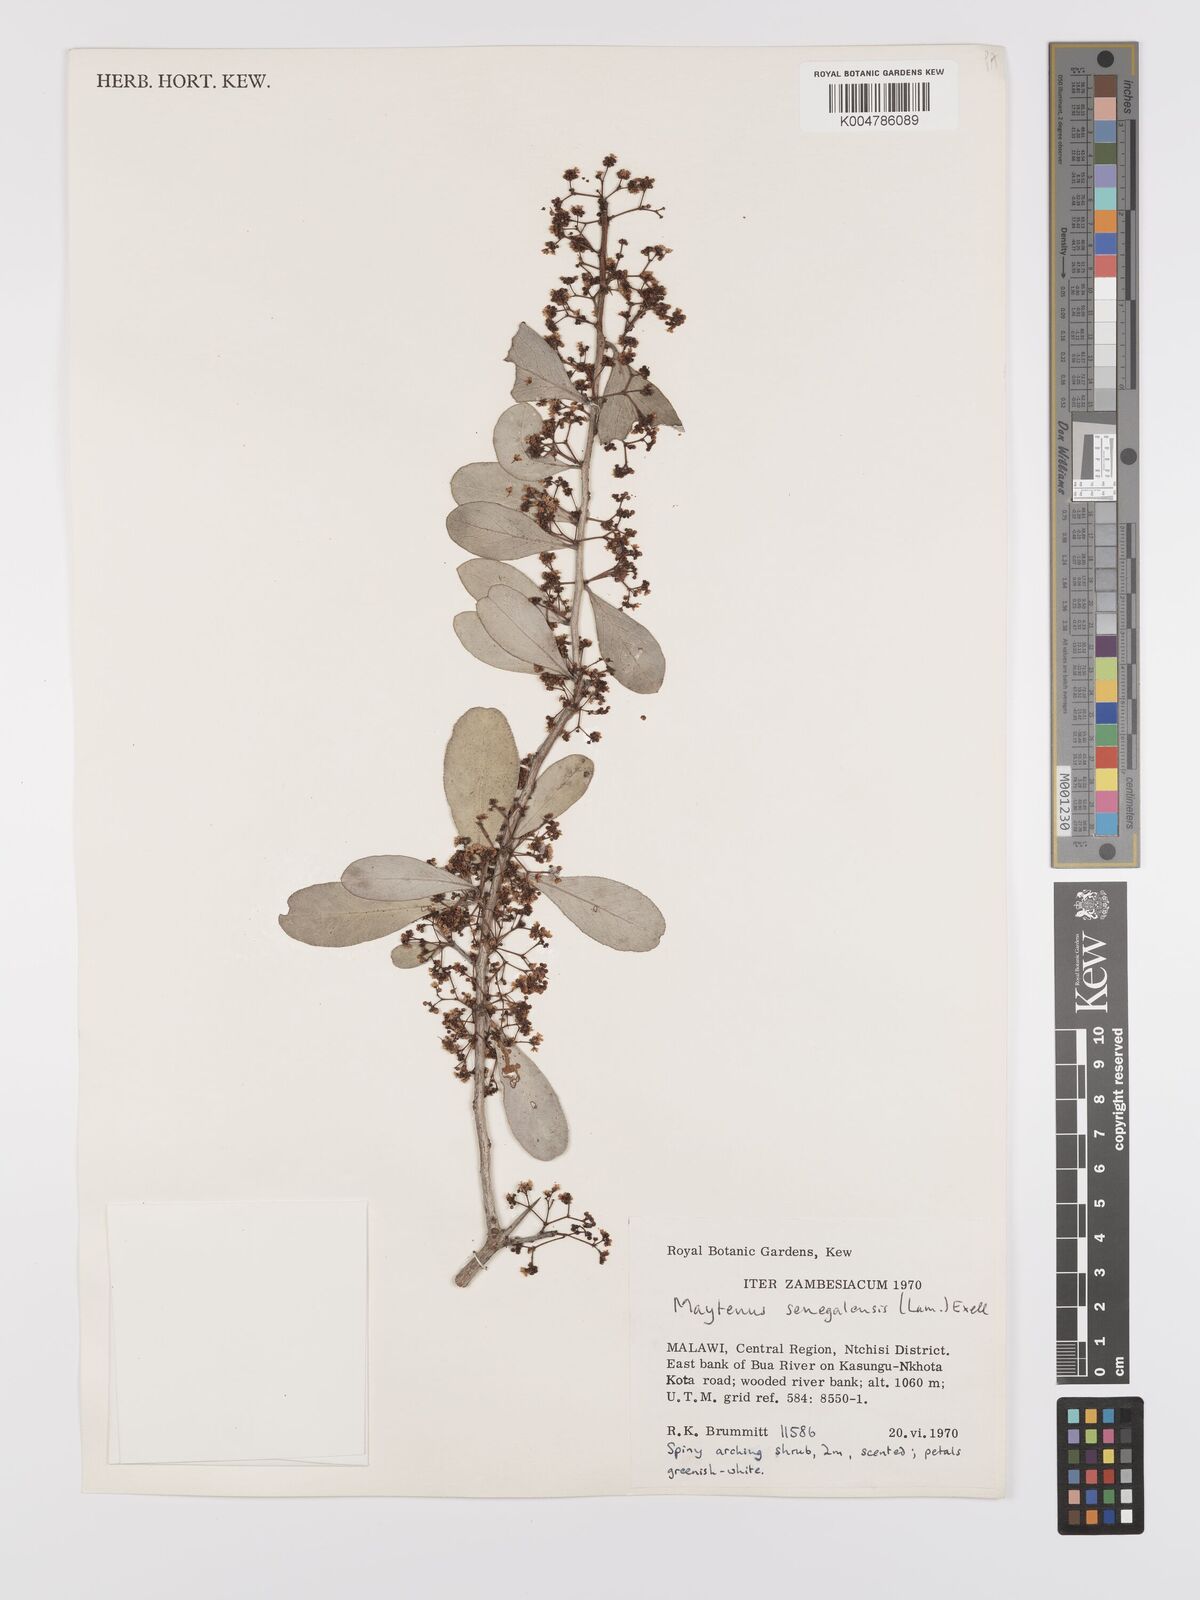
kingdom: Plantae
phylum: Tracheophyta
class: Magnoliopsida
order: Celastrales
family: Celastraceae
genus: Gymnosporia
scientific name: Gymnosporia senegalensis
